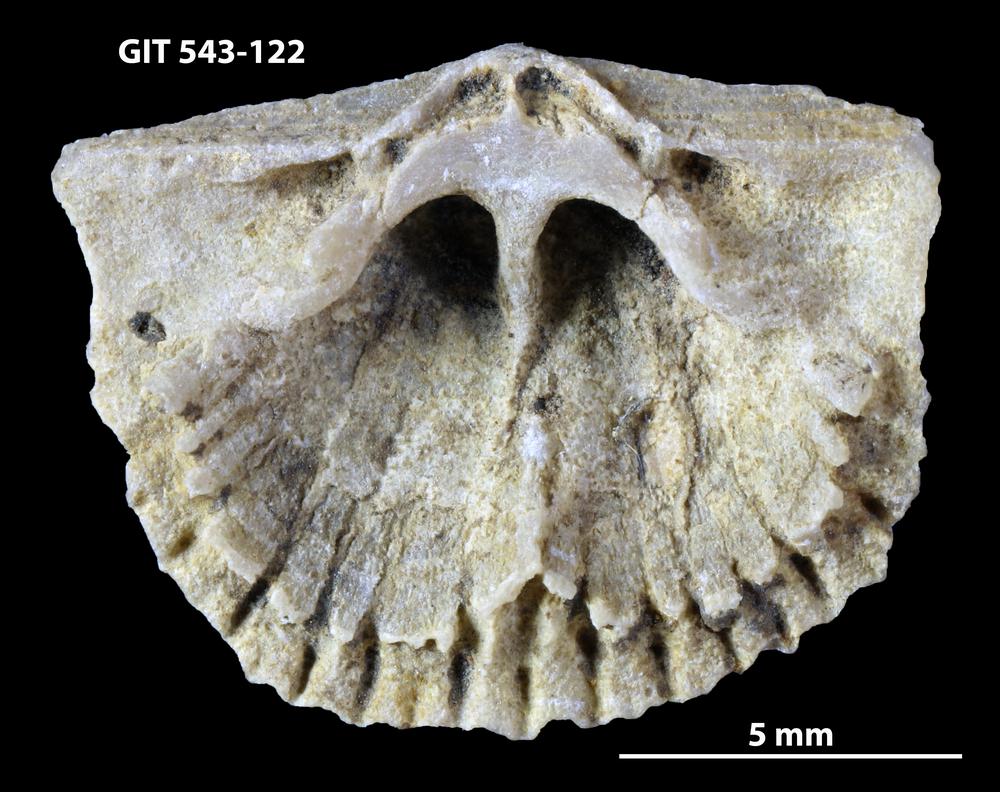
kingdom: Animalia
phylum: Brachiopoda
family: Gonambonitidae
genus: Estlandia
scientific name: Estlandia Orthisina marginata
